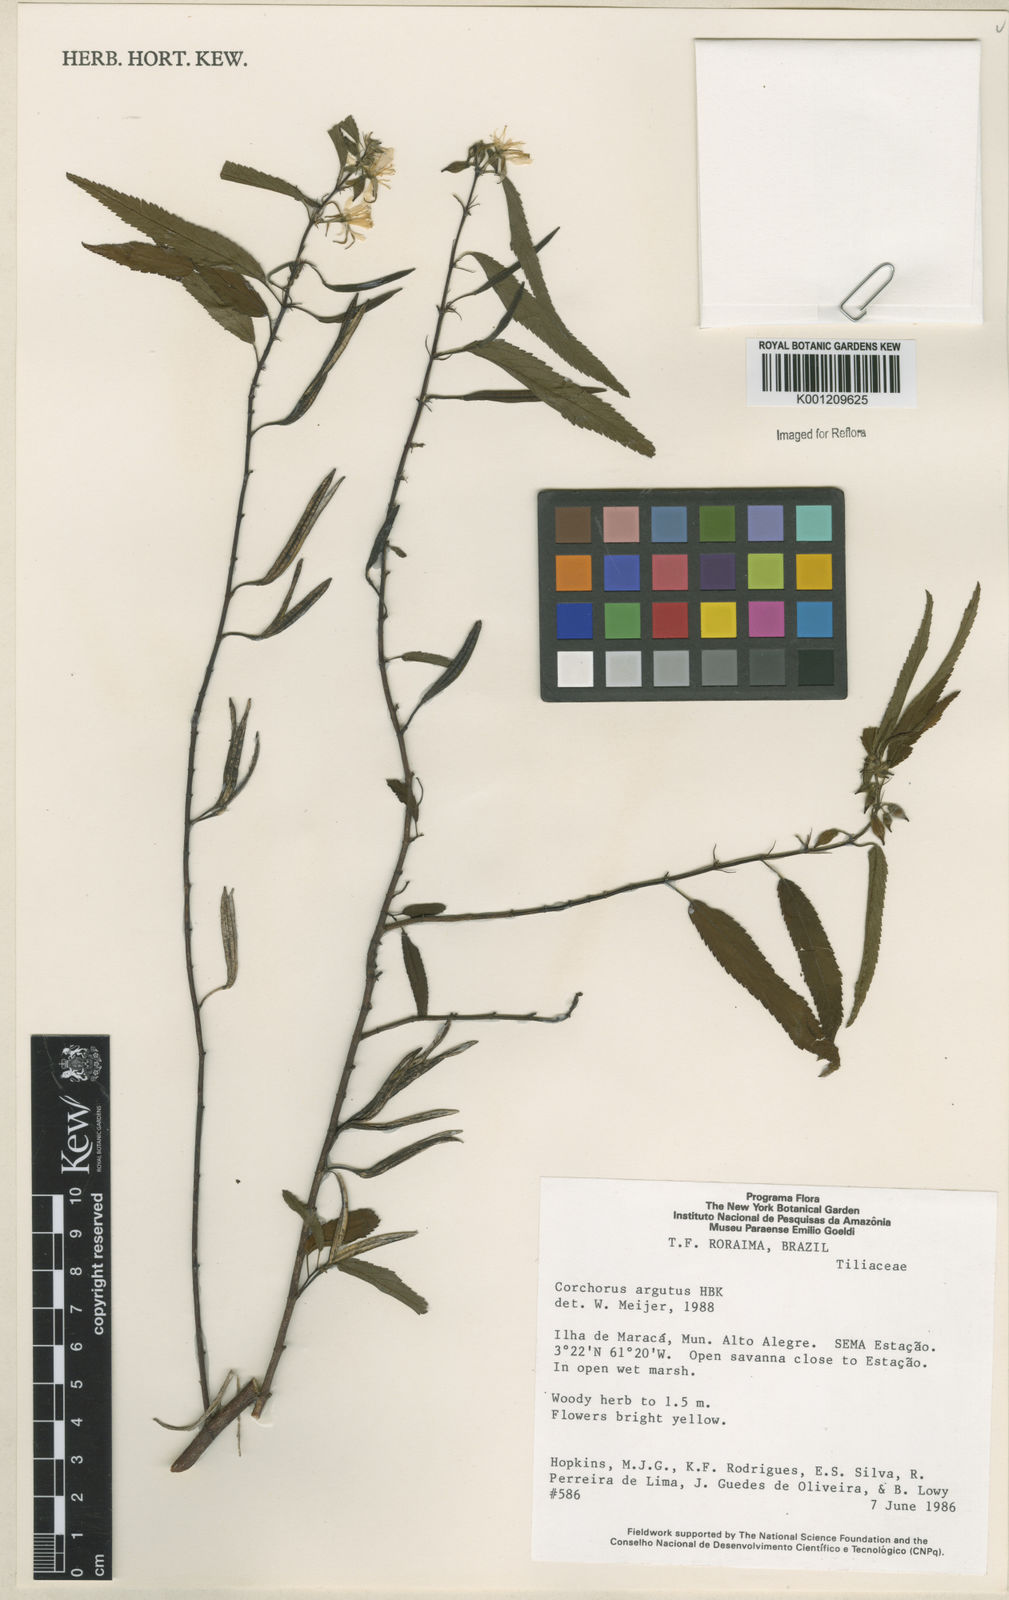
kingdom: Plantae
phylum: Tracheophyta
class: Magnoliopsida
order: Malvales
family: Malvaceae
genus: Corchorus
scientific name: Corchorus argutus
